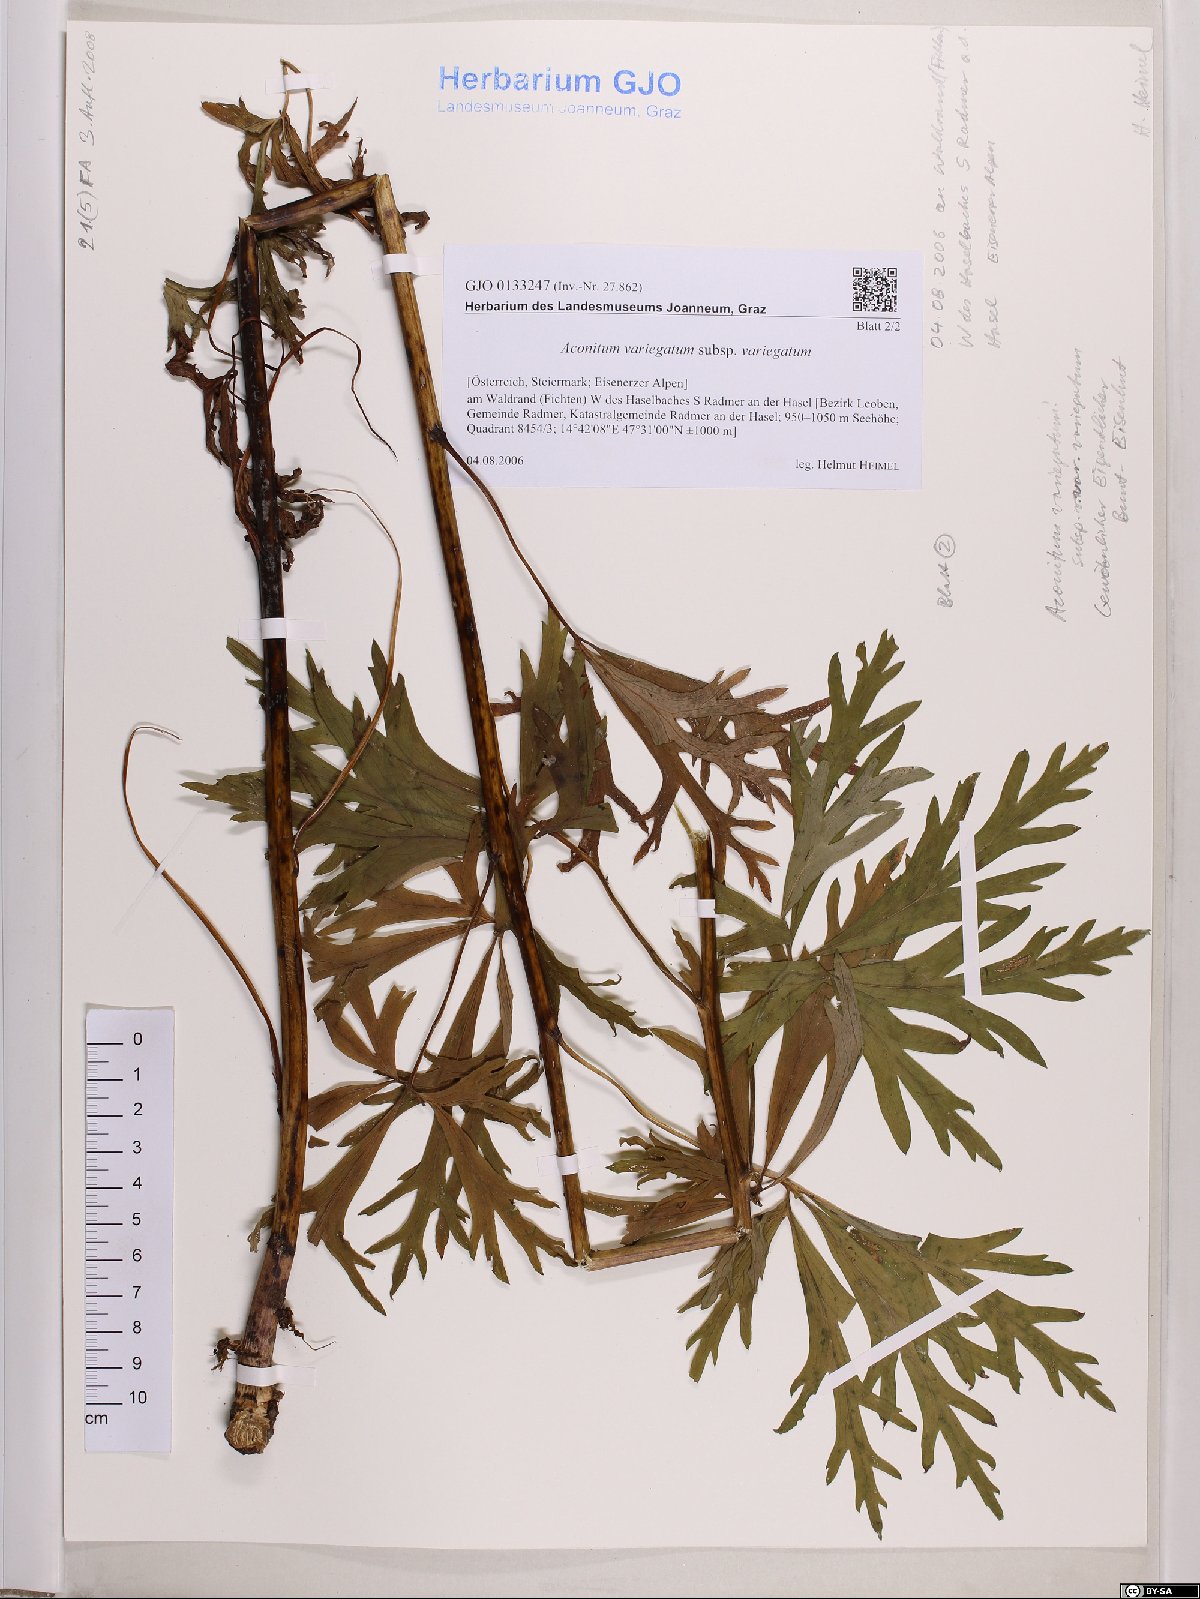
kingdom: Plantae
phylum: Tracheophyta
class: Magnoliopsida
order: Ranunculales
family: Ranunculaceae
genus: Aconitum
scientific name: Aconitum variegatum
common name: Manchurian monkshood
